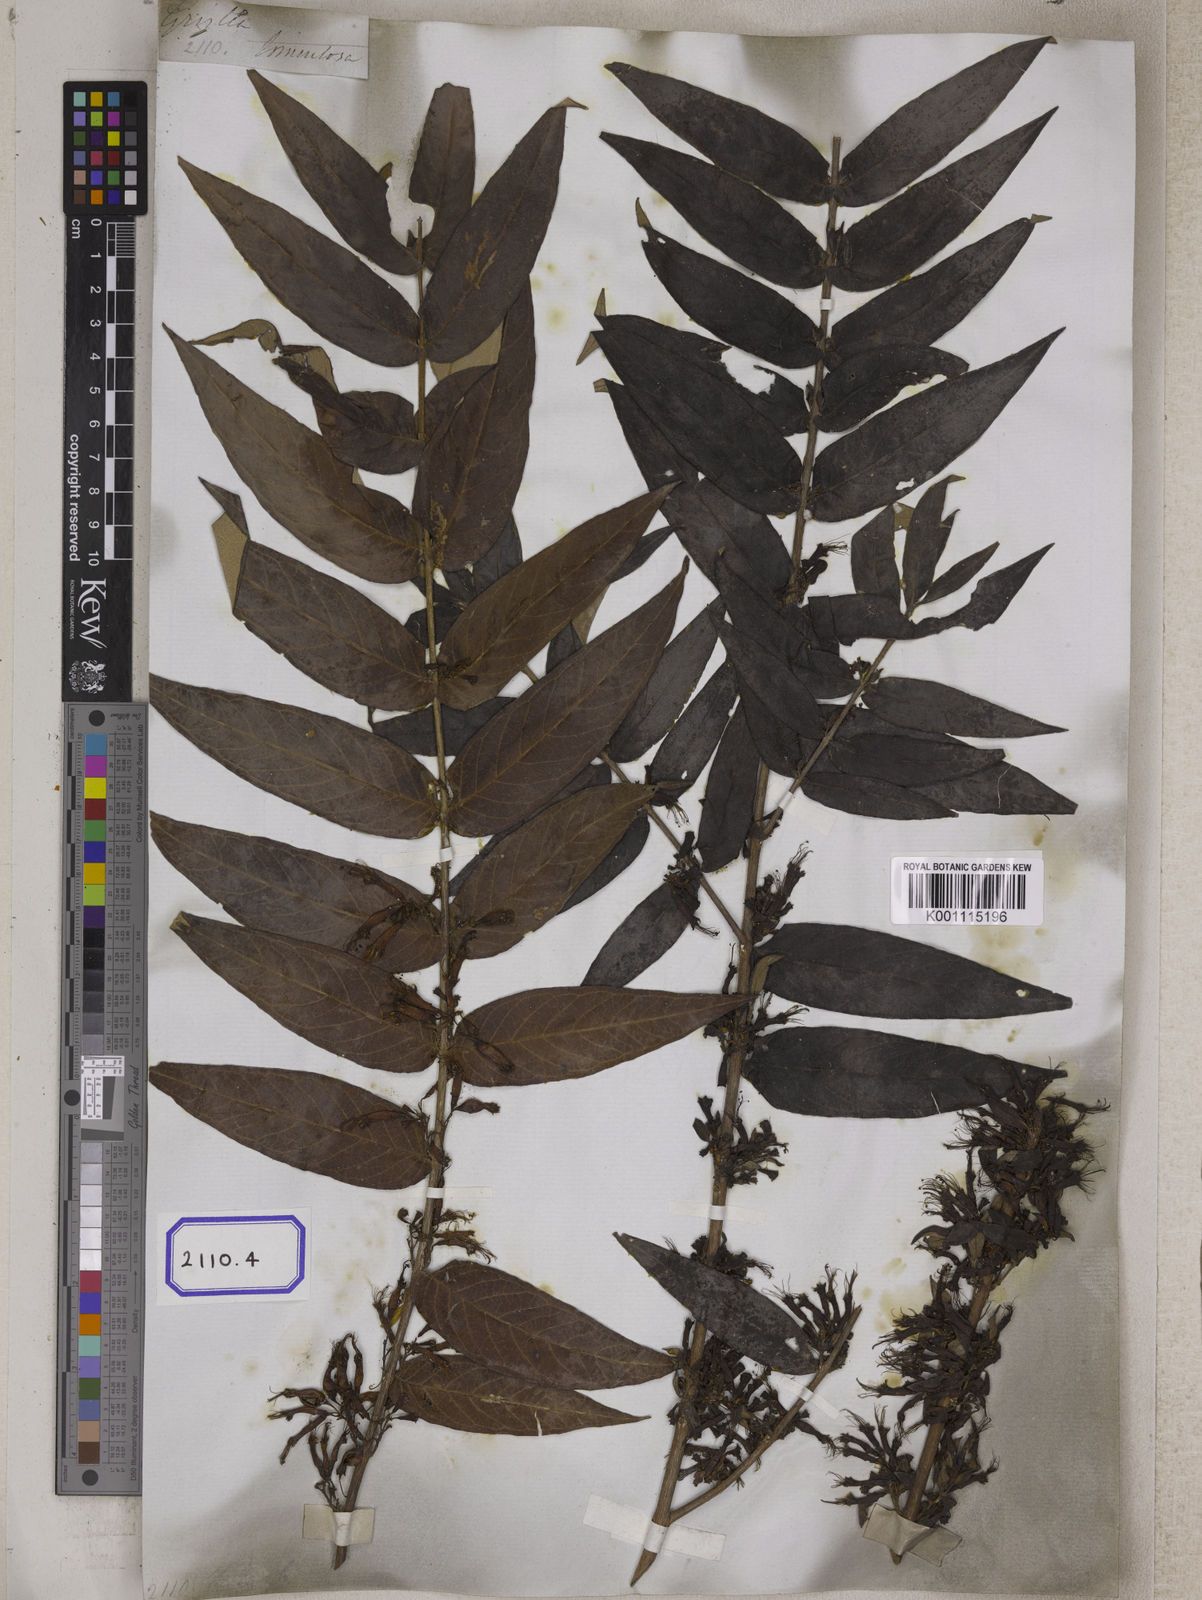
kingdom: Plantae
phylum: Tracheophyta
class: Magnoliopsida
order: Myrtales
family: Combretaceae
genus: Combretum
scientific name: Combretum
